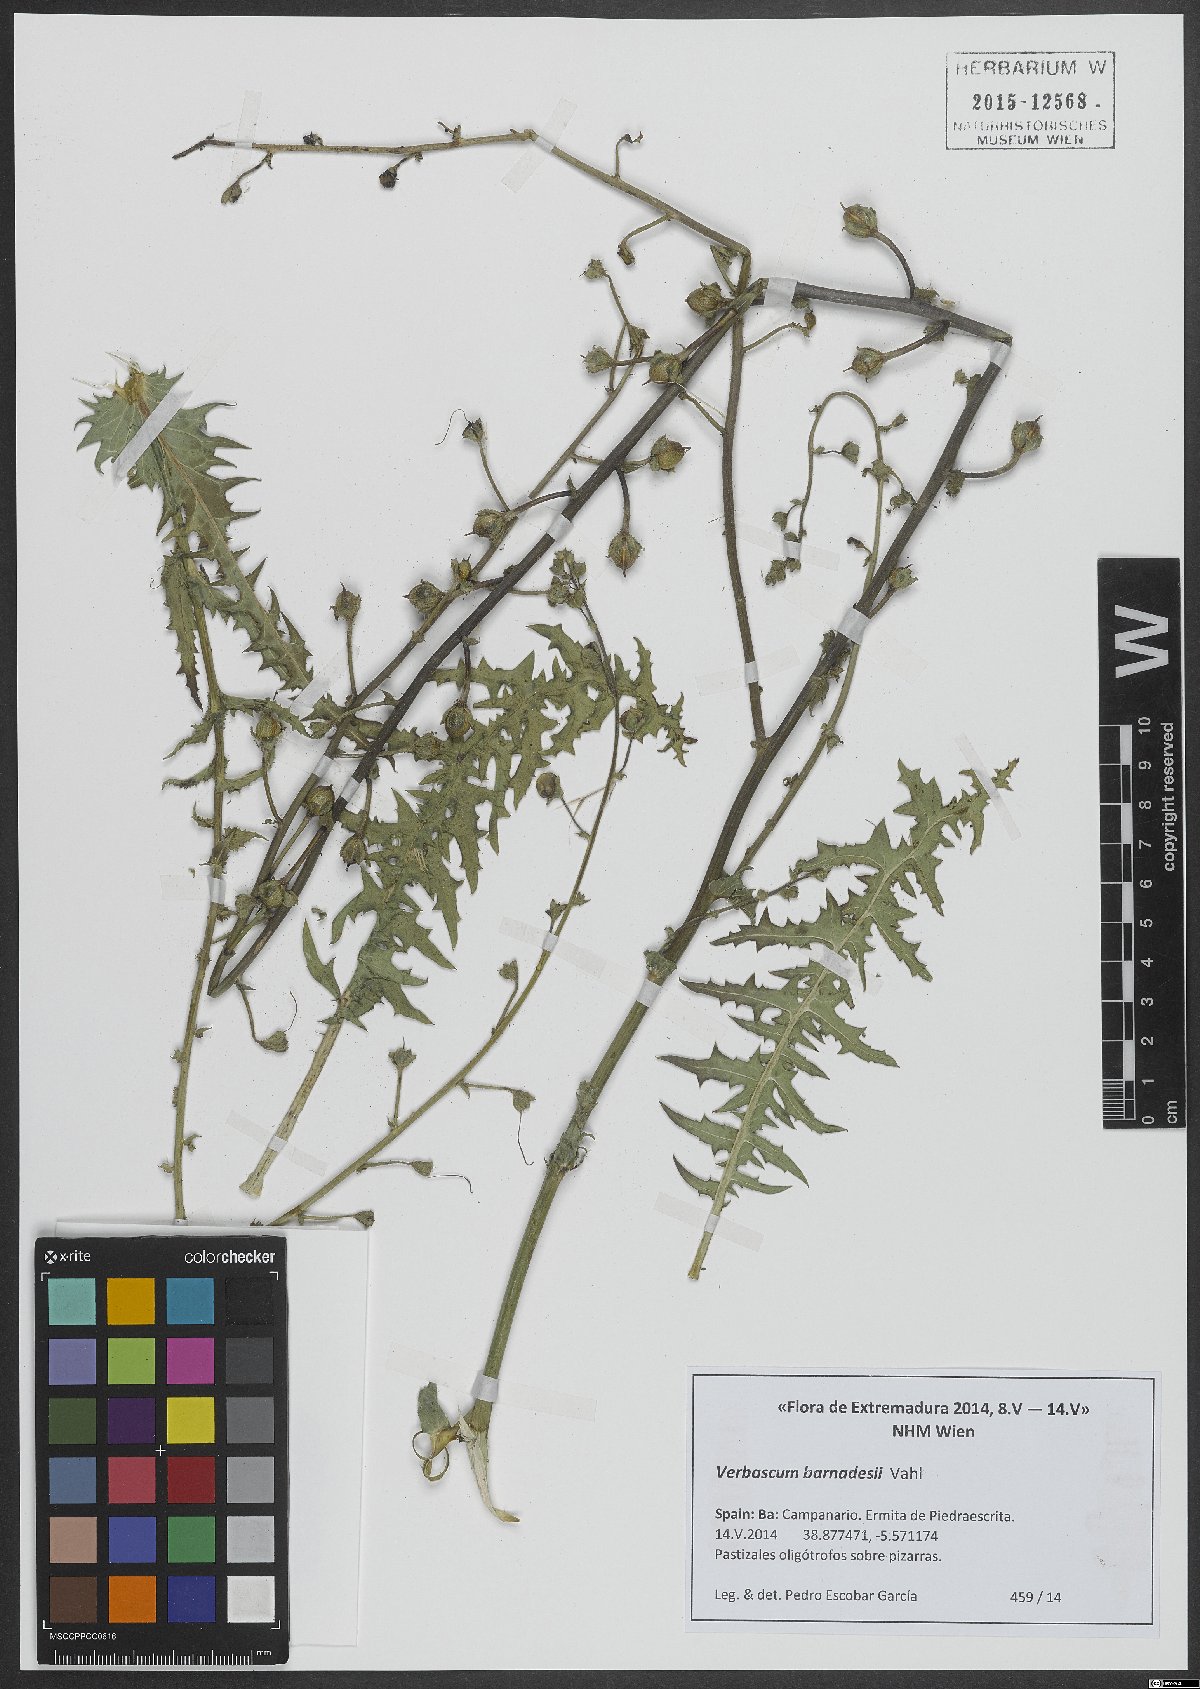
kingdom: Plantae
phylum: Tracheophyta
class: Magnoliopsida
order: Lamiales
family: Scrophulariaceae
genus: Verbascum
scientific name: Verbascum barnadesii
